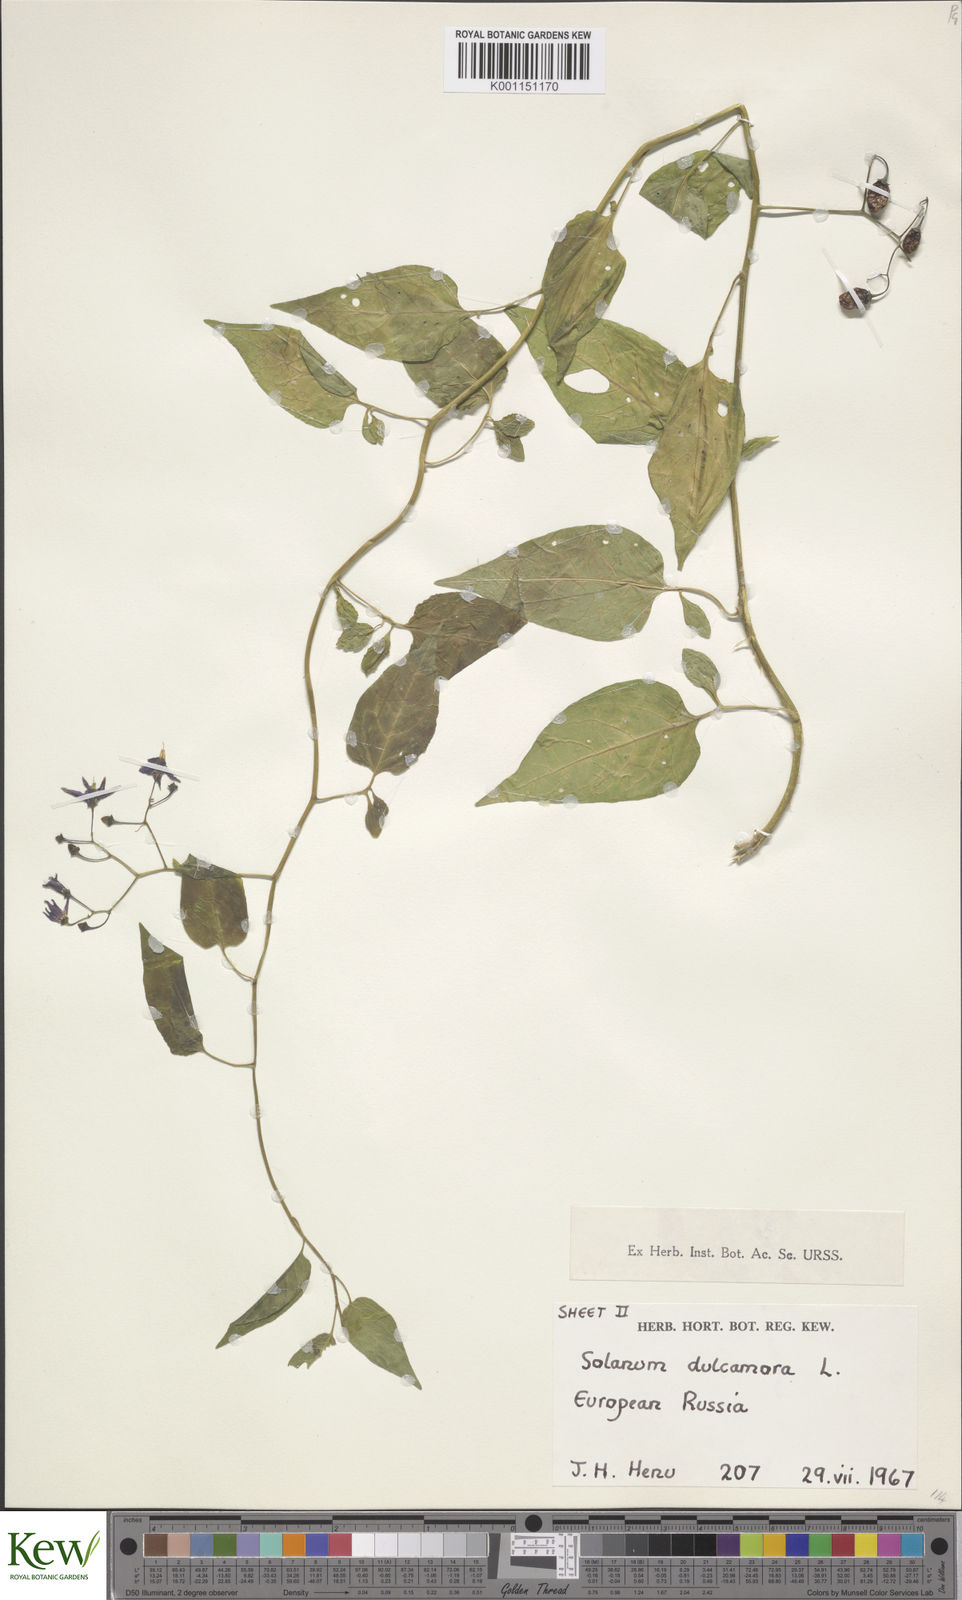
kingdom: Plantae
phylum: Tracheophyta
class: Magnoliopsida
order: Solanales
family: Solanaceae
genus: Solanum
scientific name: Solanum dulcamara
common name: Climbing nightshade
